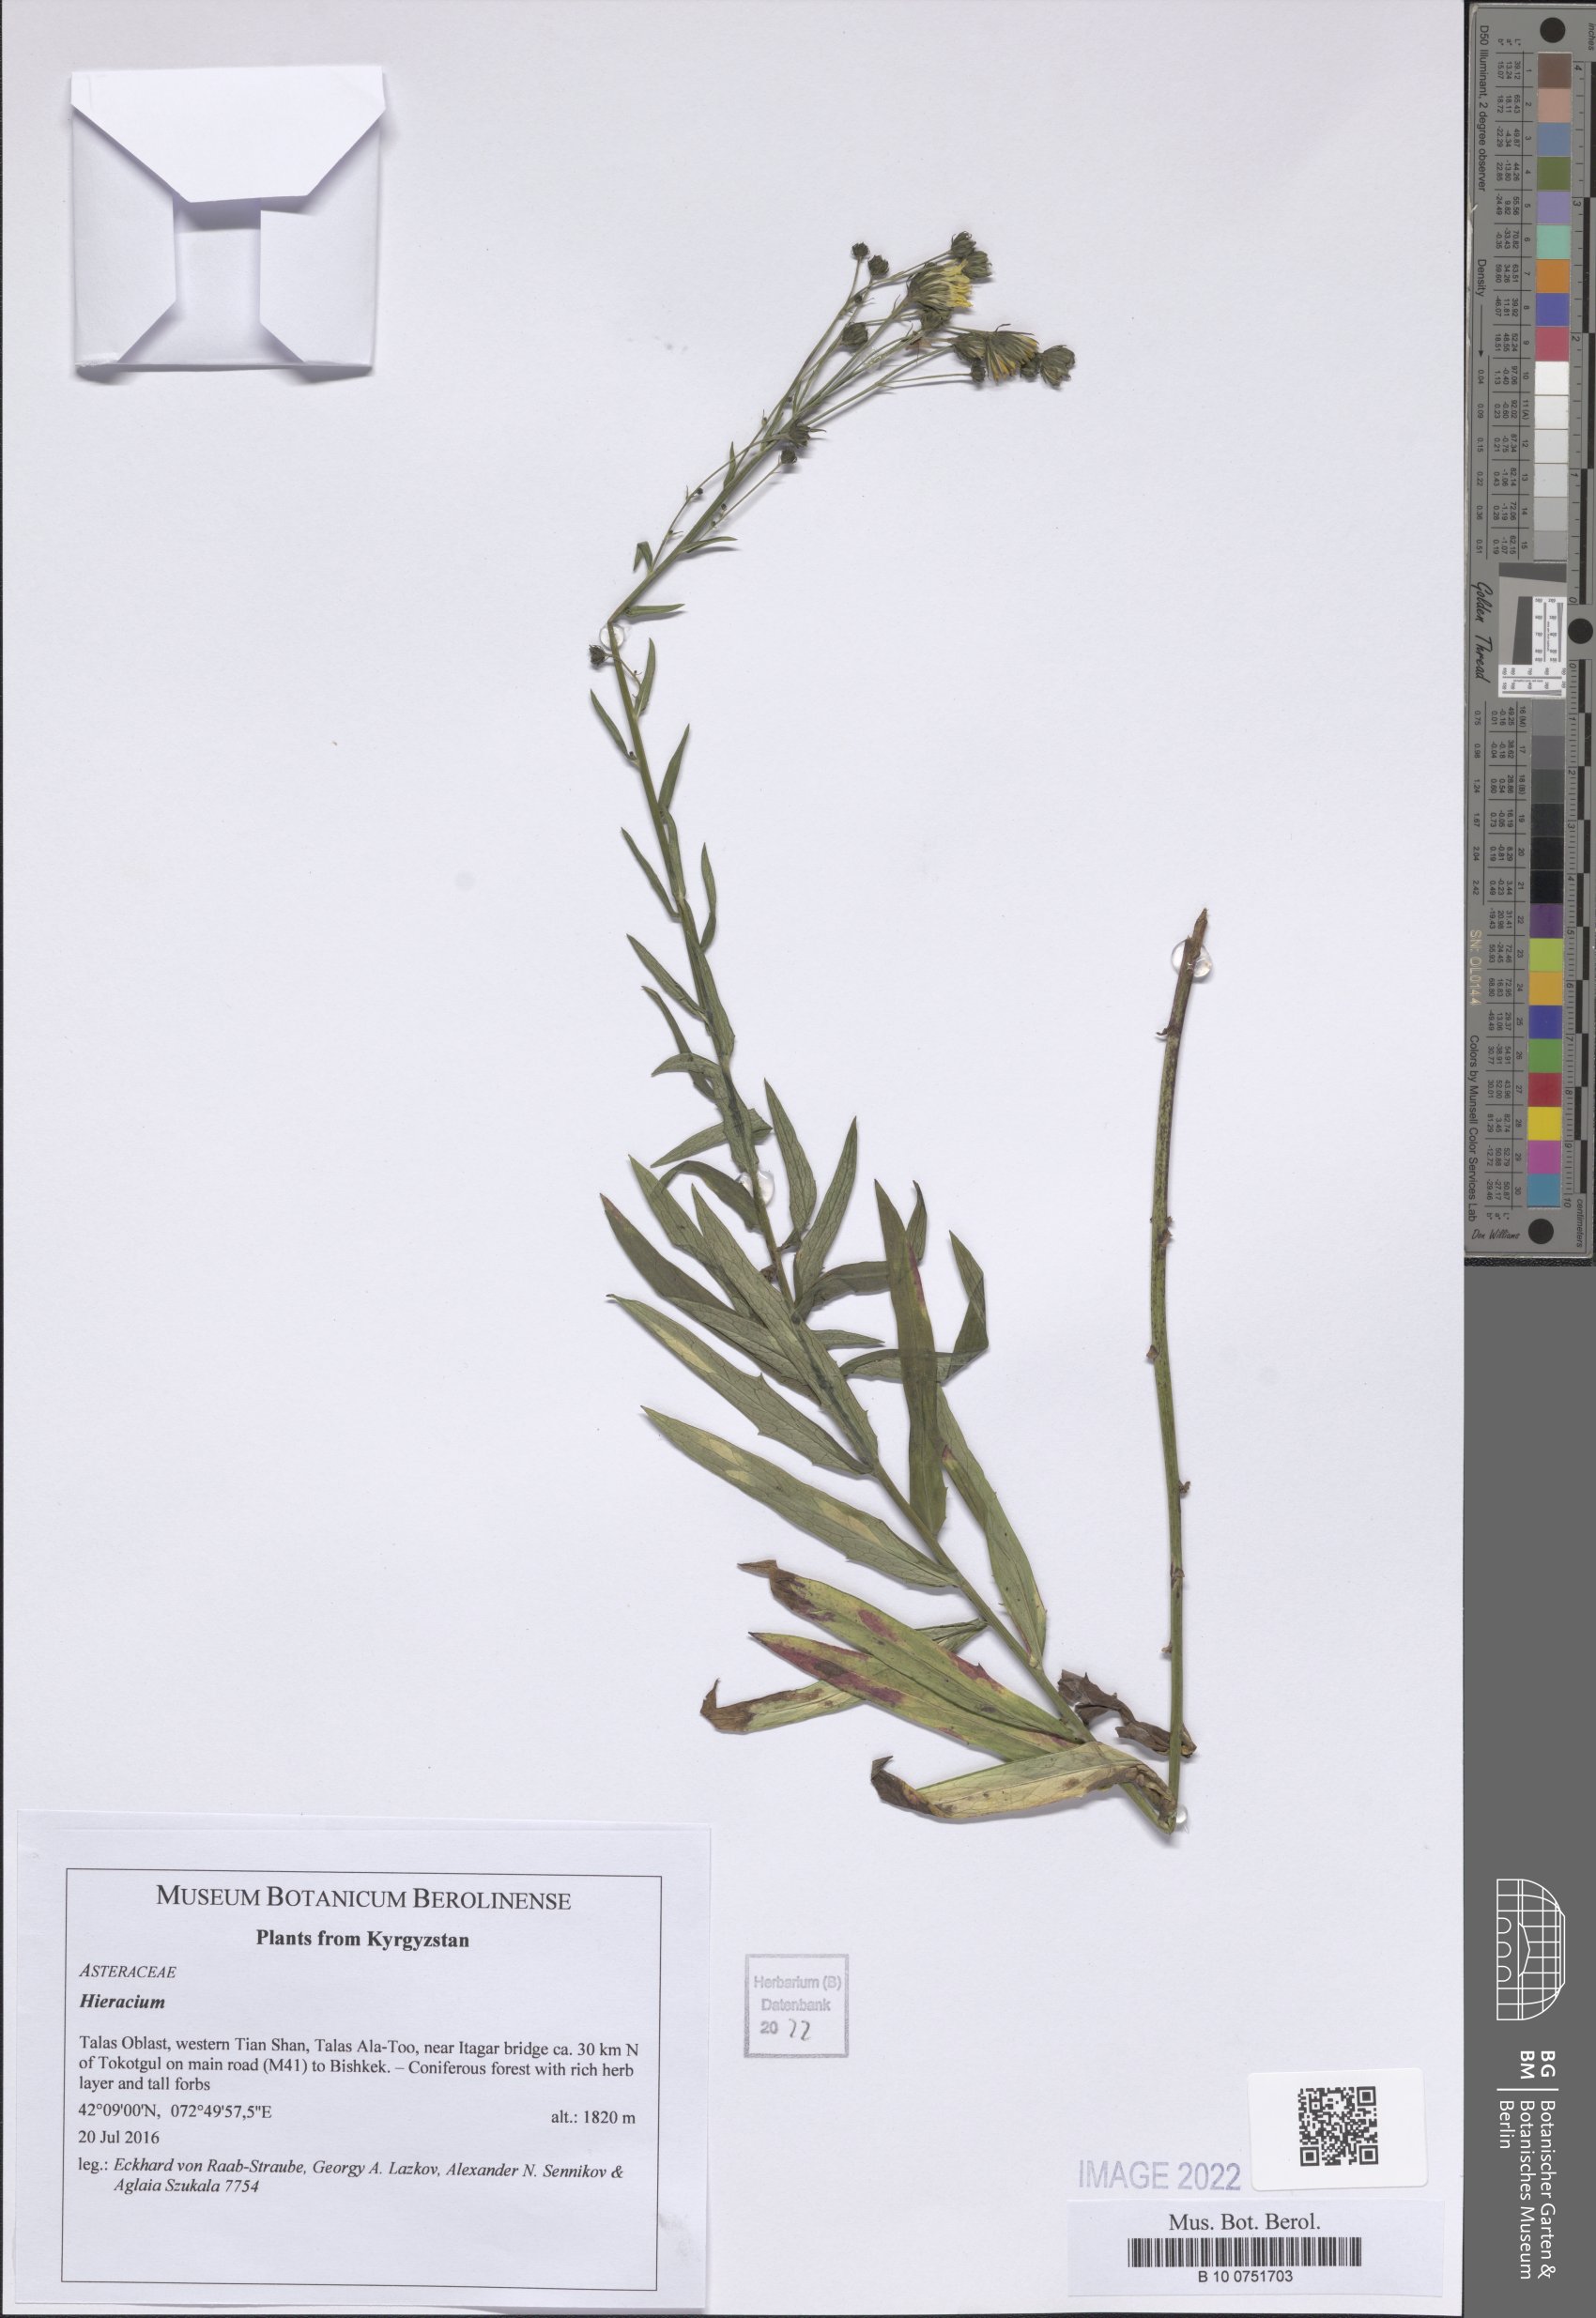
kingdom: Plantae
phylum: Tracheophyta
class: Magnoliopsida
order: Asterales
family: Asteraceae
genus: Hieracium
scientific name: Hieracium
